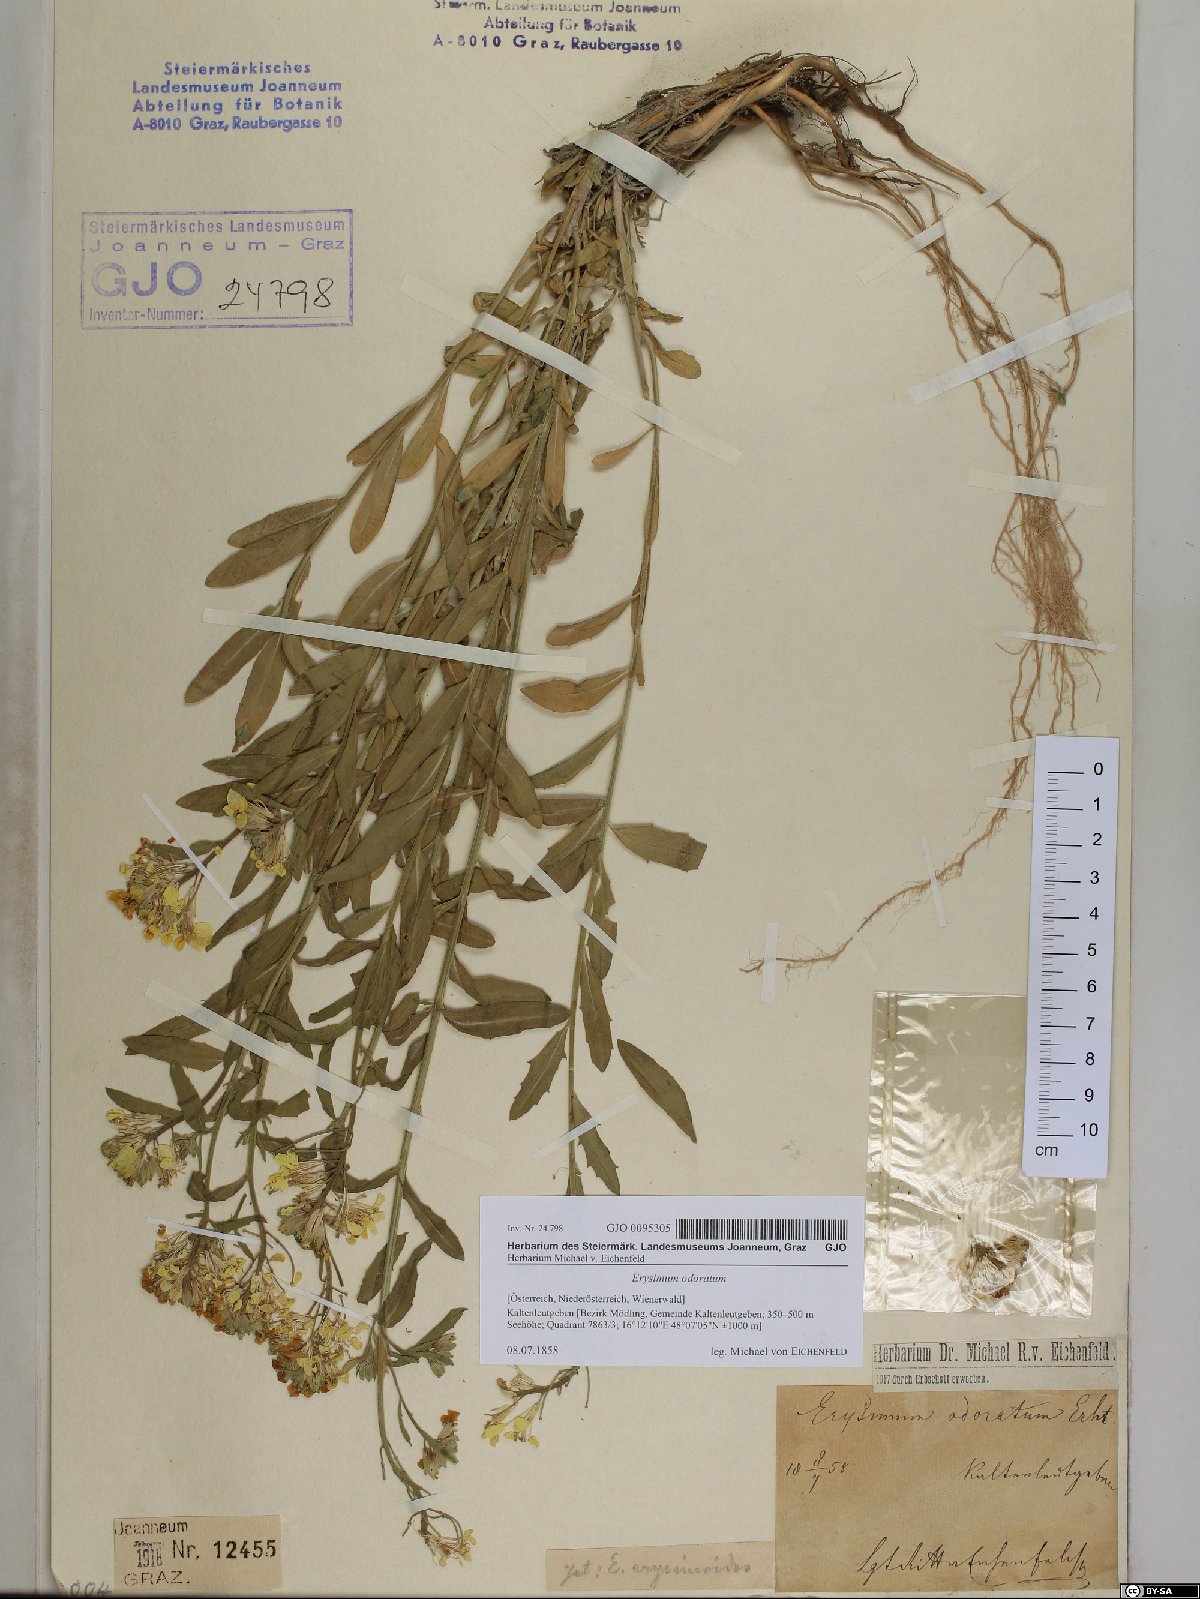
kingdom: Plantae
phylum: Tracheophyta
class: Magnoliopsida
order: Brassicales
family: Brassicaceae
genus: Erysimum
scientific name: Erysimum odoratum
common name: Smelly wallflower
